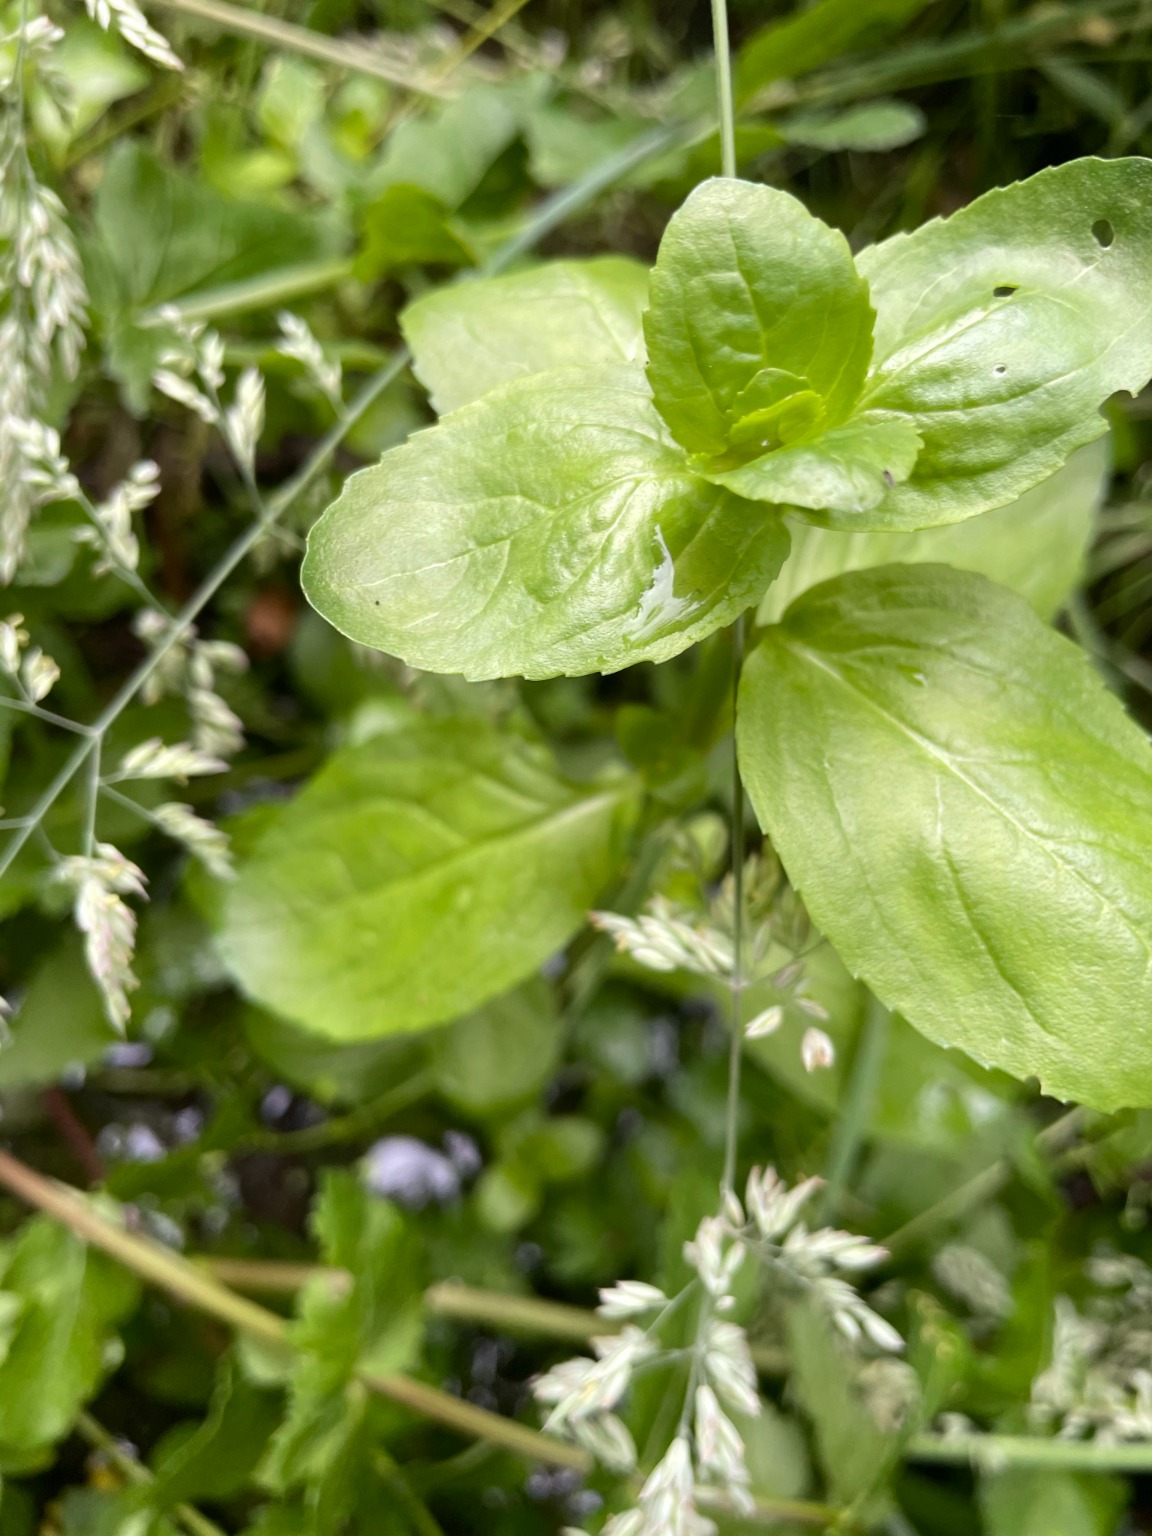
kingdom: Plantae
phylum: Tracheophyta
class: Magnoliopsida
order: Lamiales
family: Plantaginaceae
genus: Veronica
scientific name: Veronica beccabunga
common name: Tykbladet ærenpris
